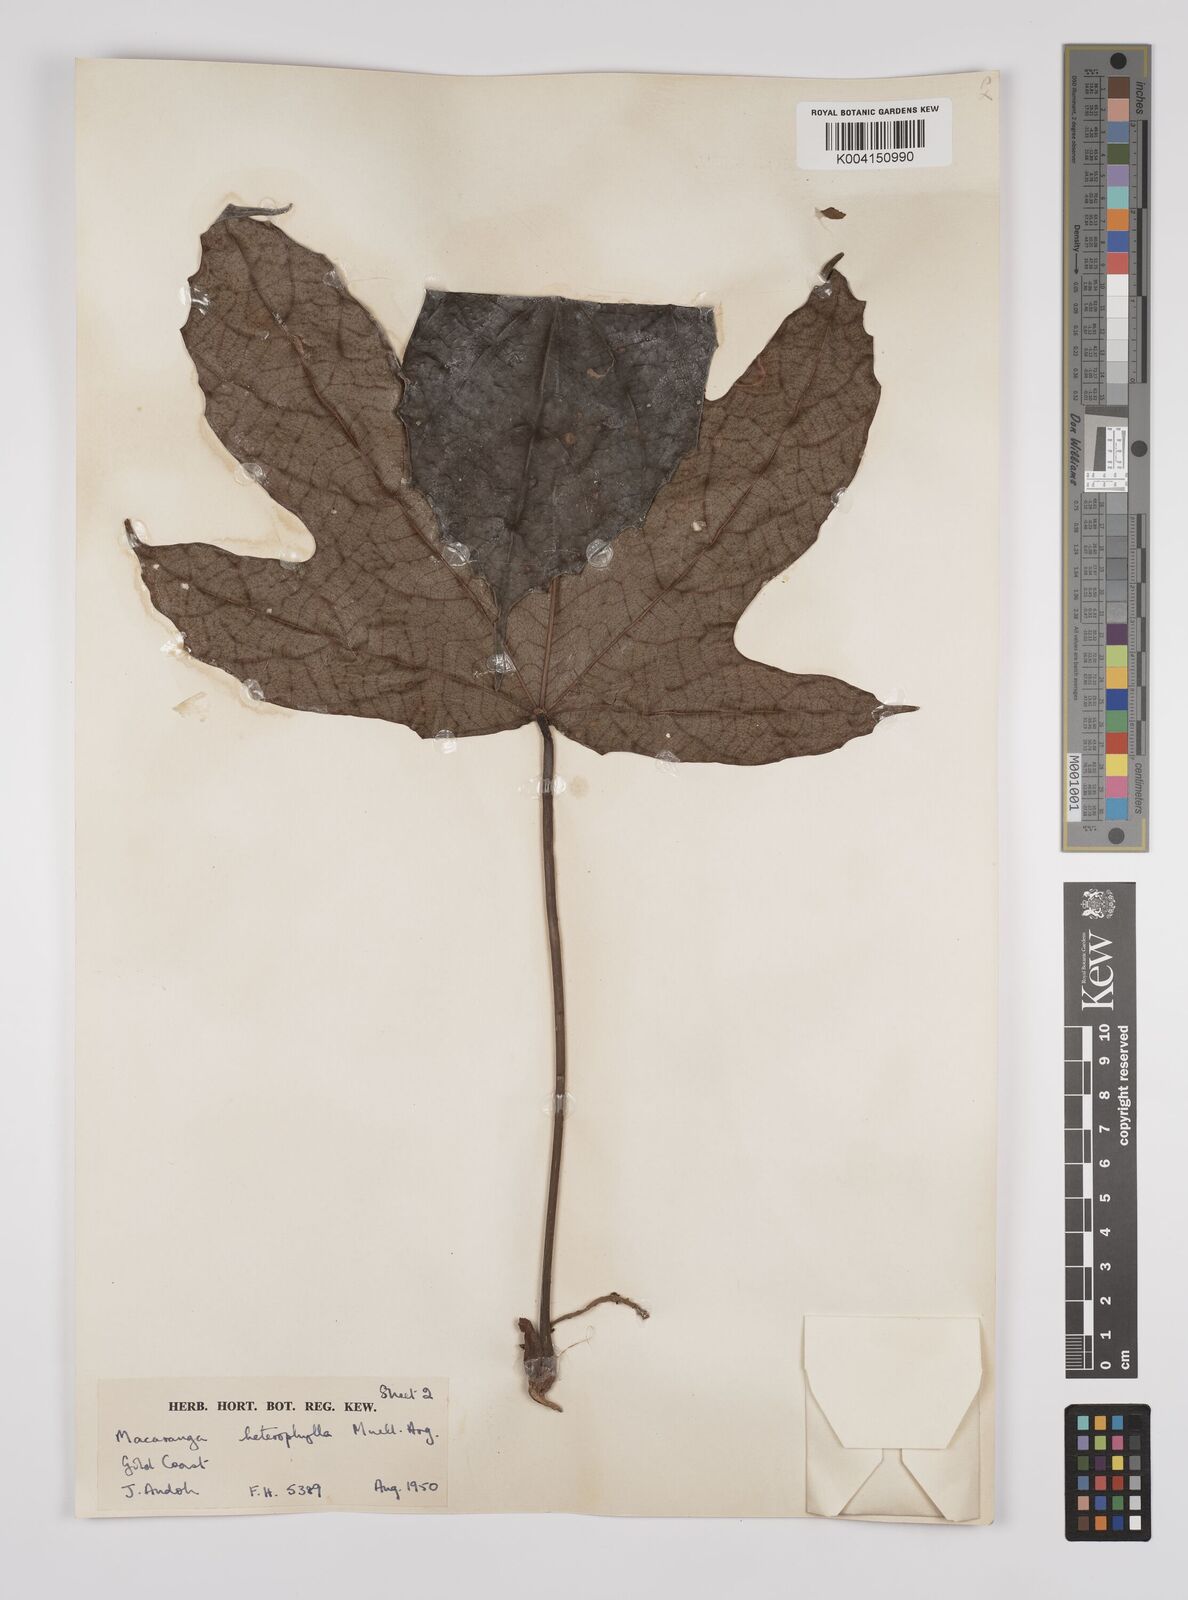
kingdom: Plantae
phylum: Tracheophyta
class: Magnoliopsida
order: Malpighiales
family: Euphorbiaceae
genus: Macaranga
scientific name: Macaranga heterophylla
